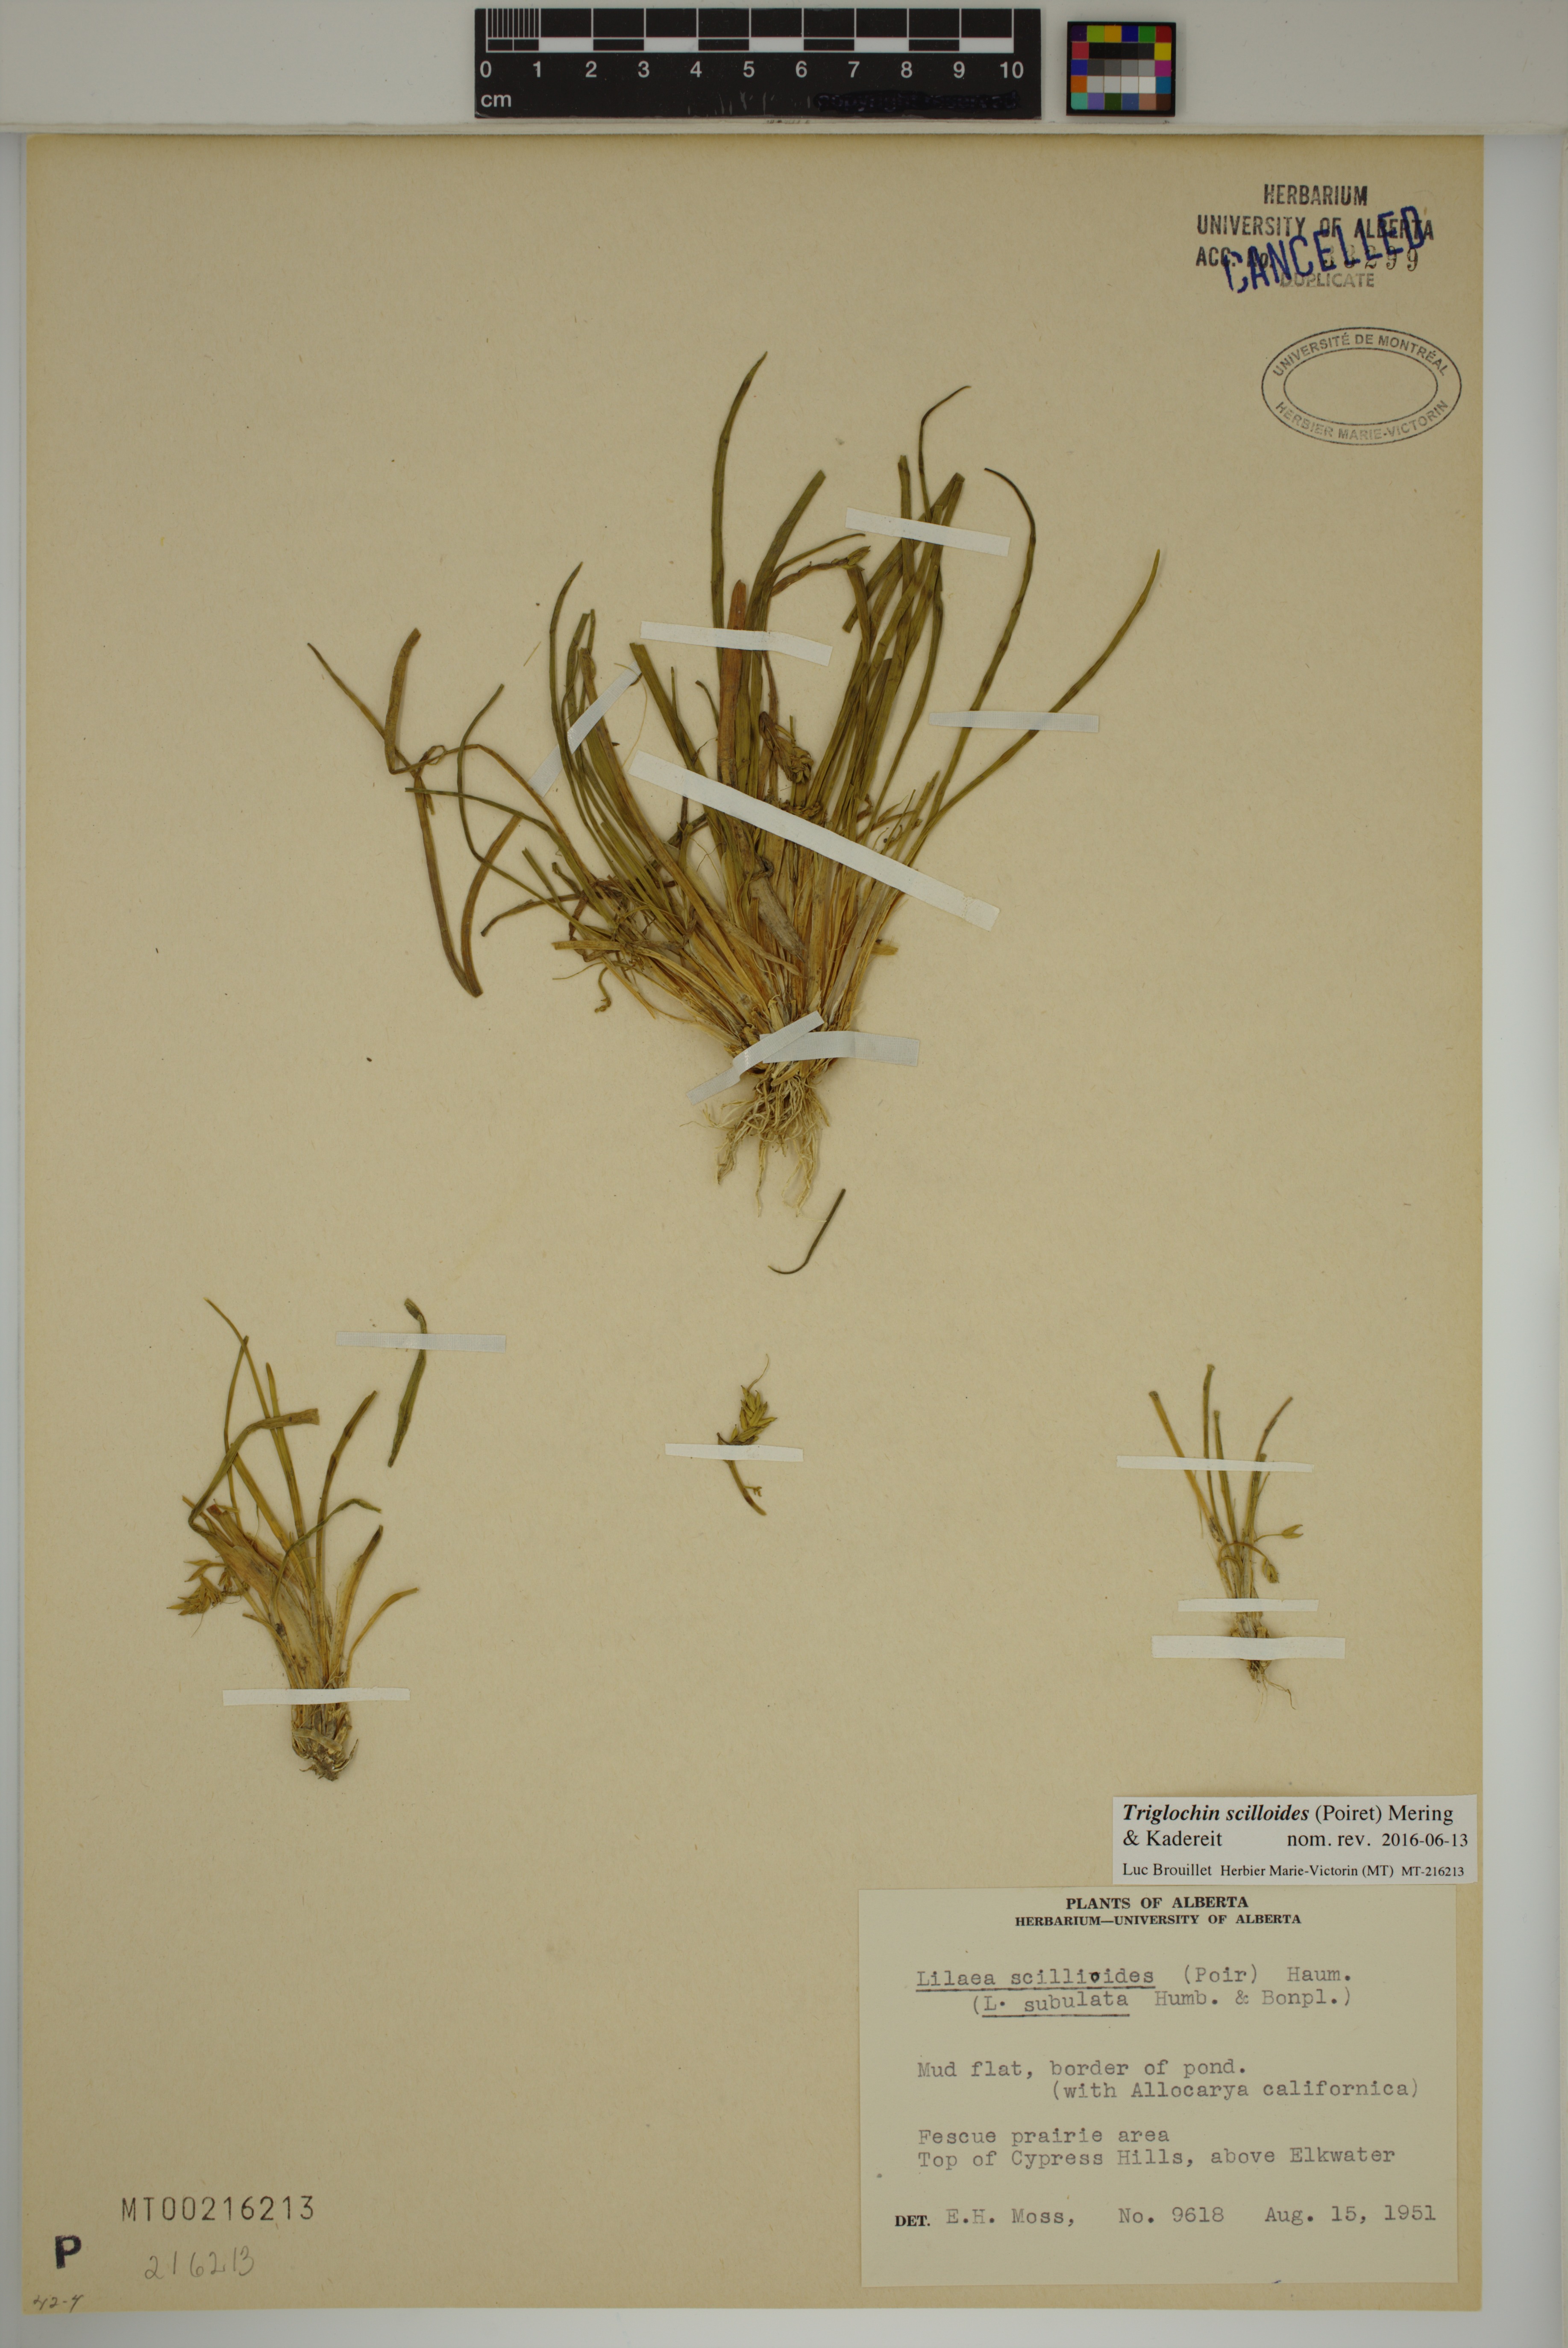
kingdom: Plantae
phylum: Tracheophyta
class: Liliopsida
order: Alismatales
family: Juncaginaceae
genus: Triglochin
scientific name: Triglochin scilloides
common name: Awl-leaved lilaea
